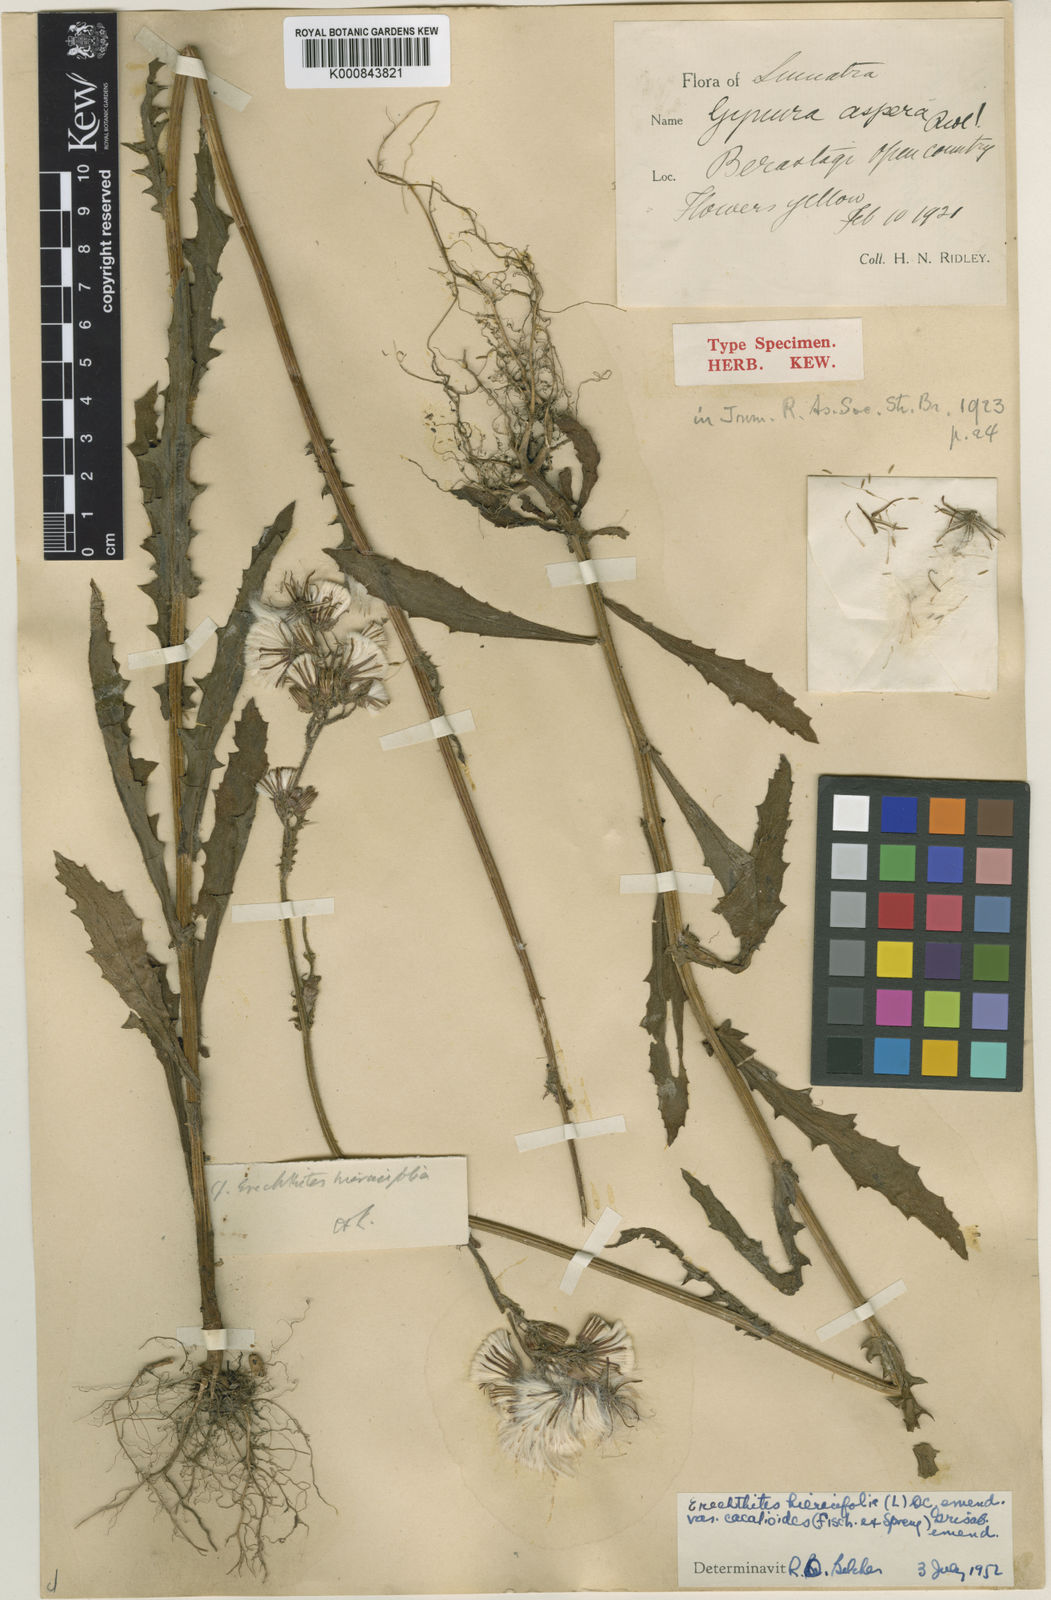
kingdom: Plantae
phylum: Tracheophyta
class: Magnoliopsida
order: Asterales
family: Asteraceae
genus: Erechtites
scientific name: Erechtites hieraciifolius
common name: American burnweed
